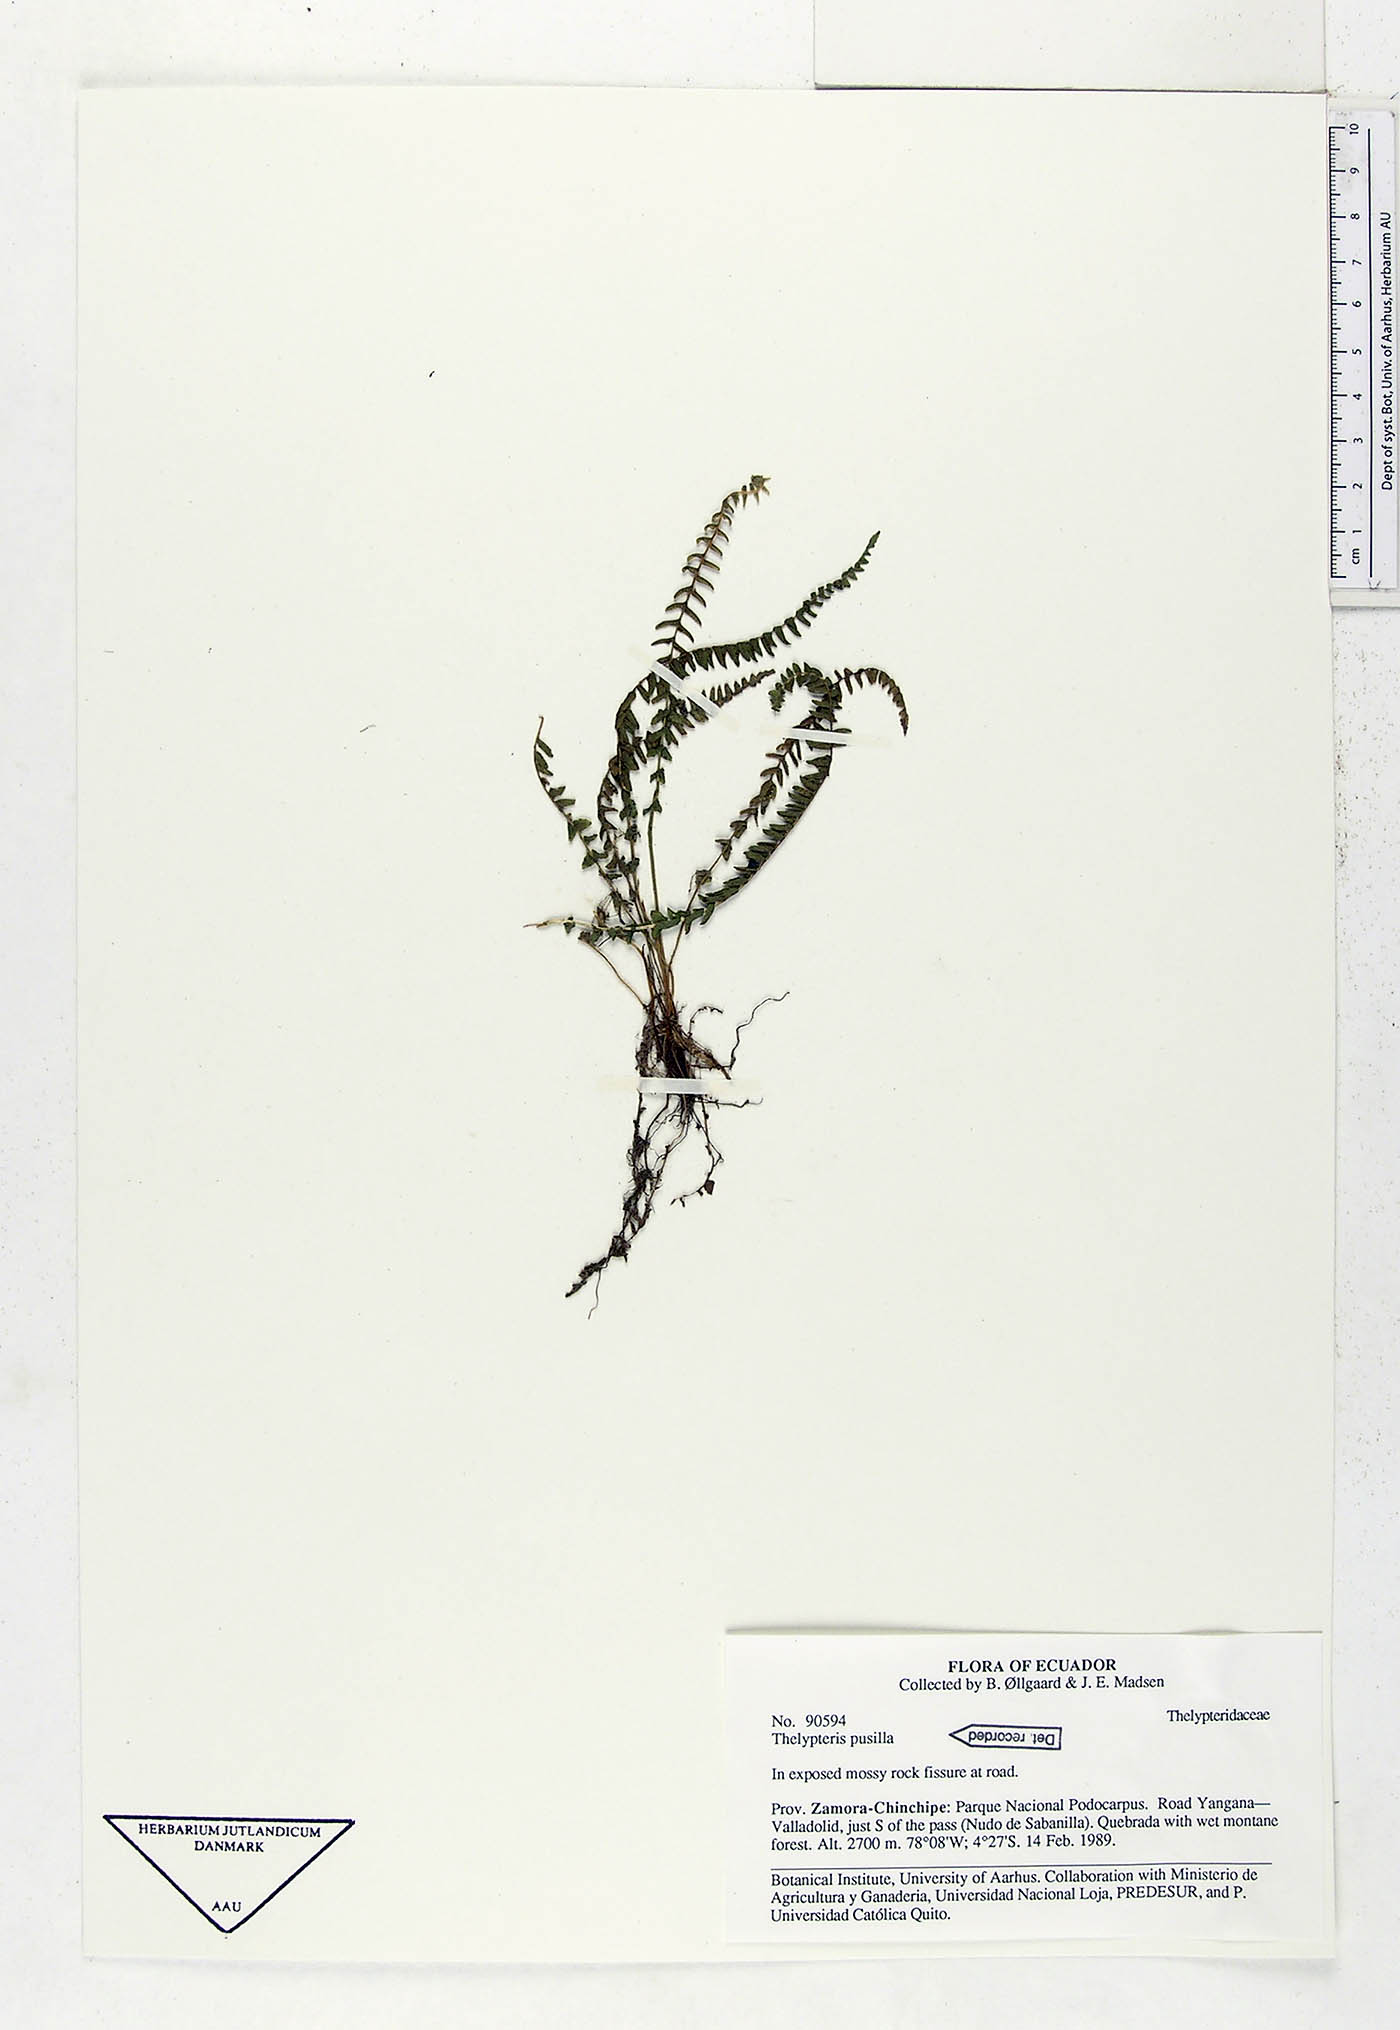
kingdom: Plantae
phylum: Tracheophyta
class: Polypodiopsida
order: Polypodiales
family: Thelypteridaceae
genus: Amauropelta
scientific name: Amauropelta pusilla
